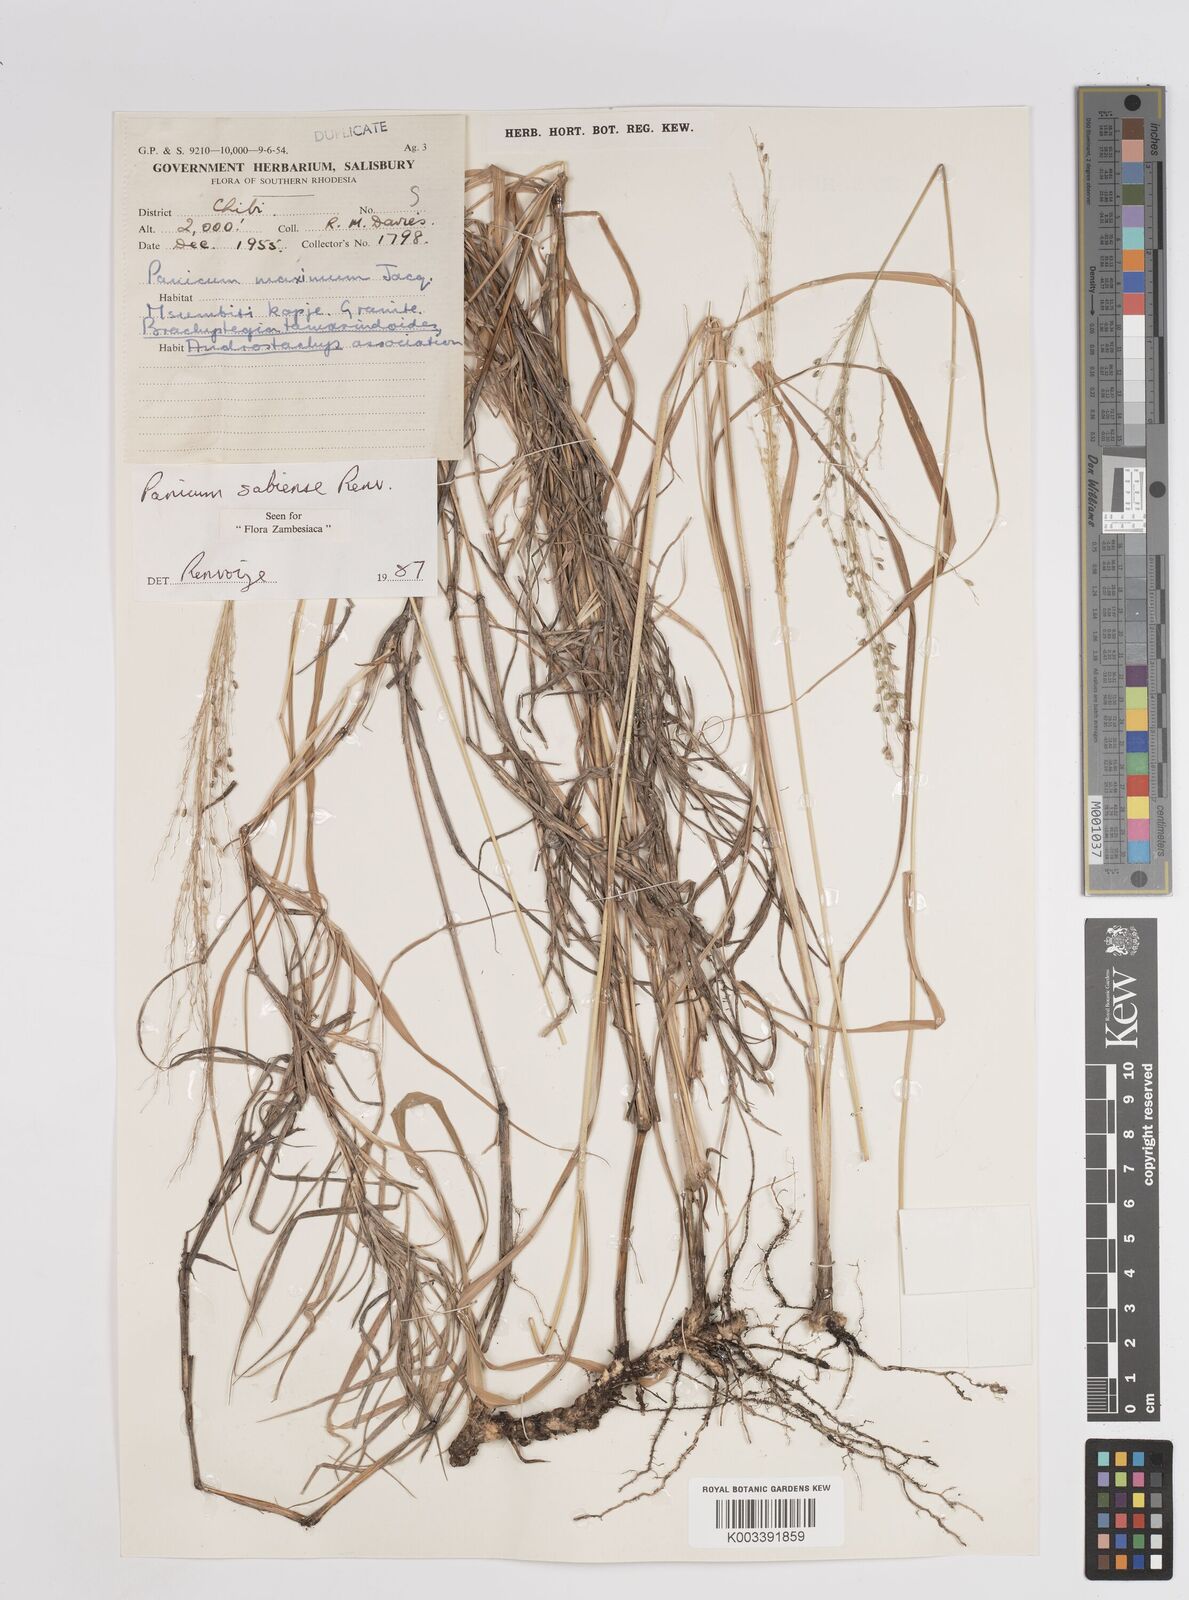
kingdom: Plantae
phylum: Tracheophyta
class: Liliopsida
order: Poales
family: Poaceae
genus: Panicum
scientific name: Panicum trichoides
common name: Tickle grass
